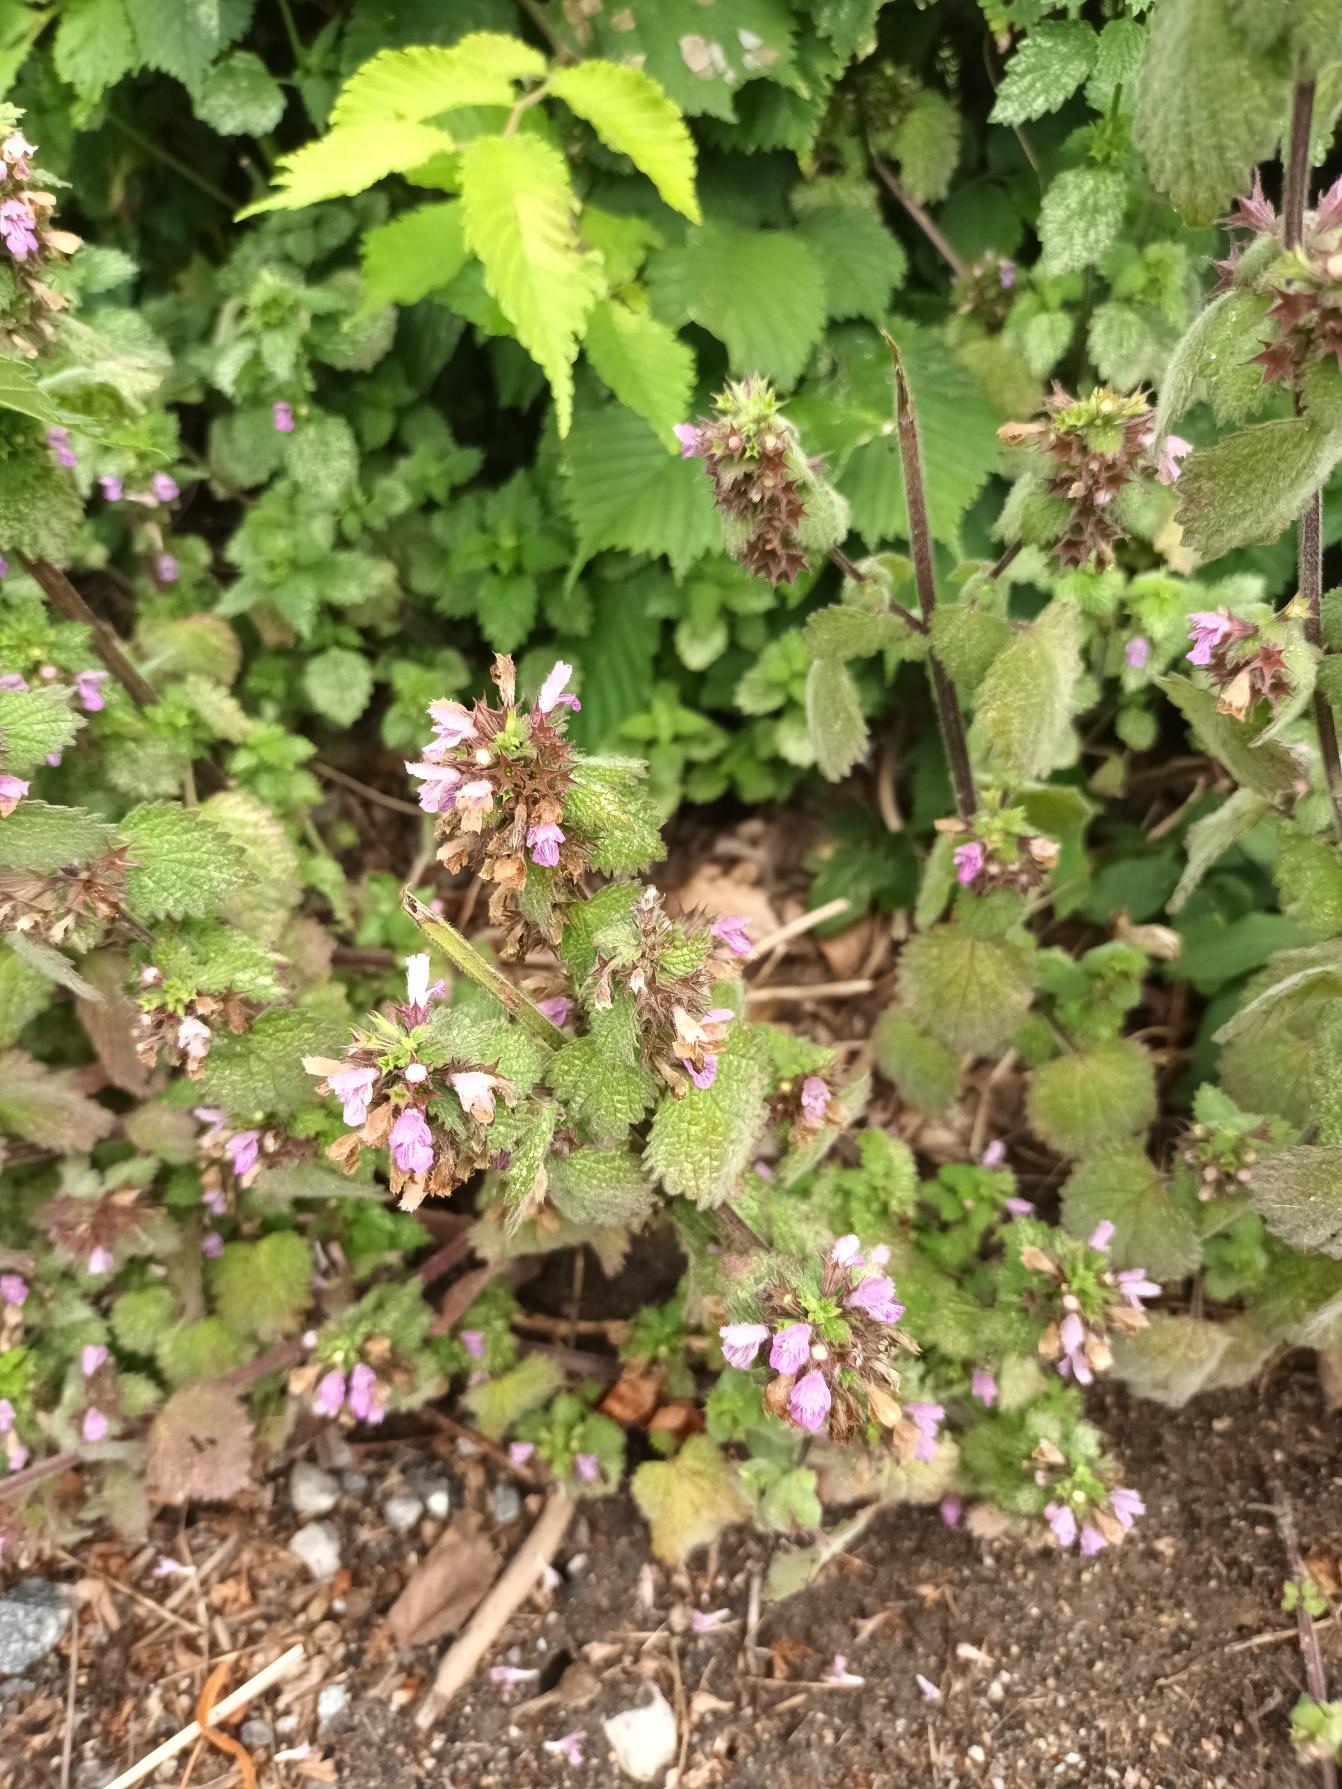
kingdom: Plantae
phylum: Tracheophyta
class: Magnoliopsida
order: Lamiales
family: Lamiaceae
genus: Ballota
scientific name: Ballota nigra
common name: Tandbæger
